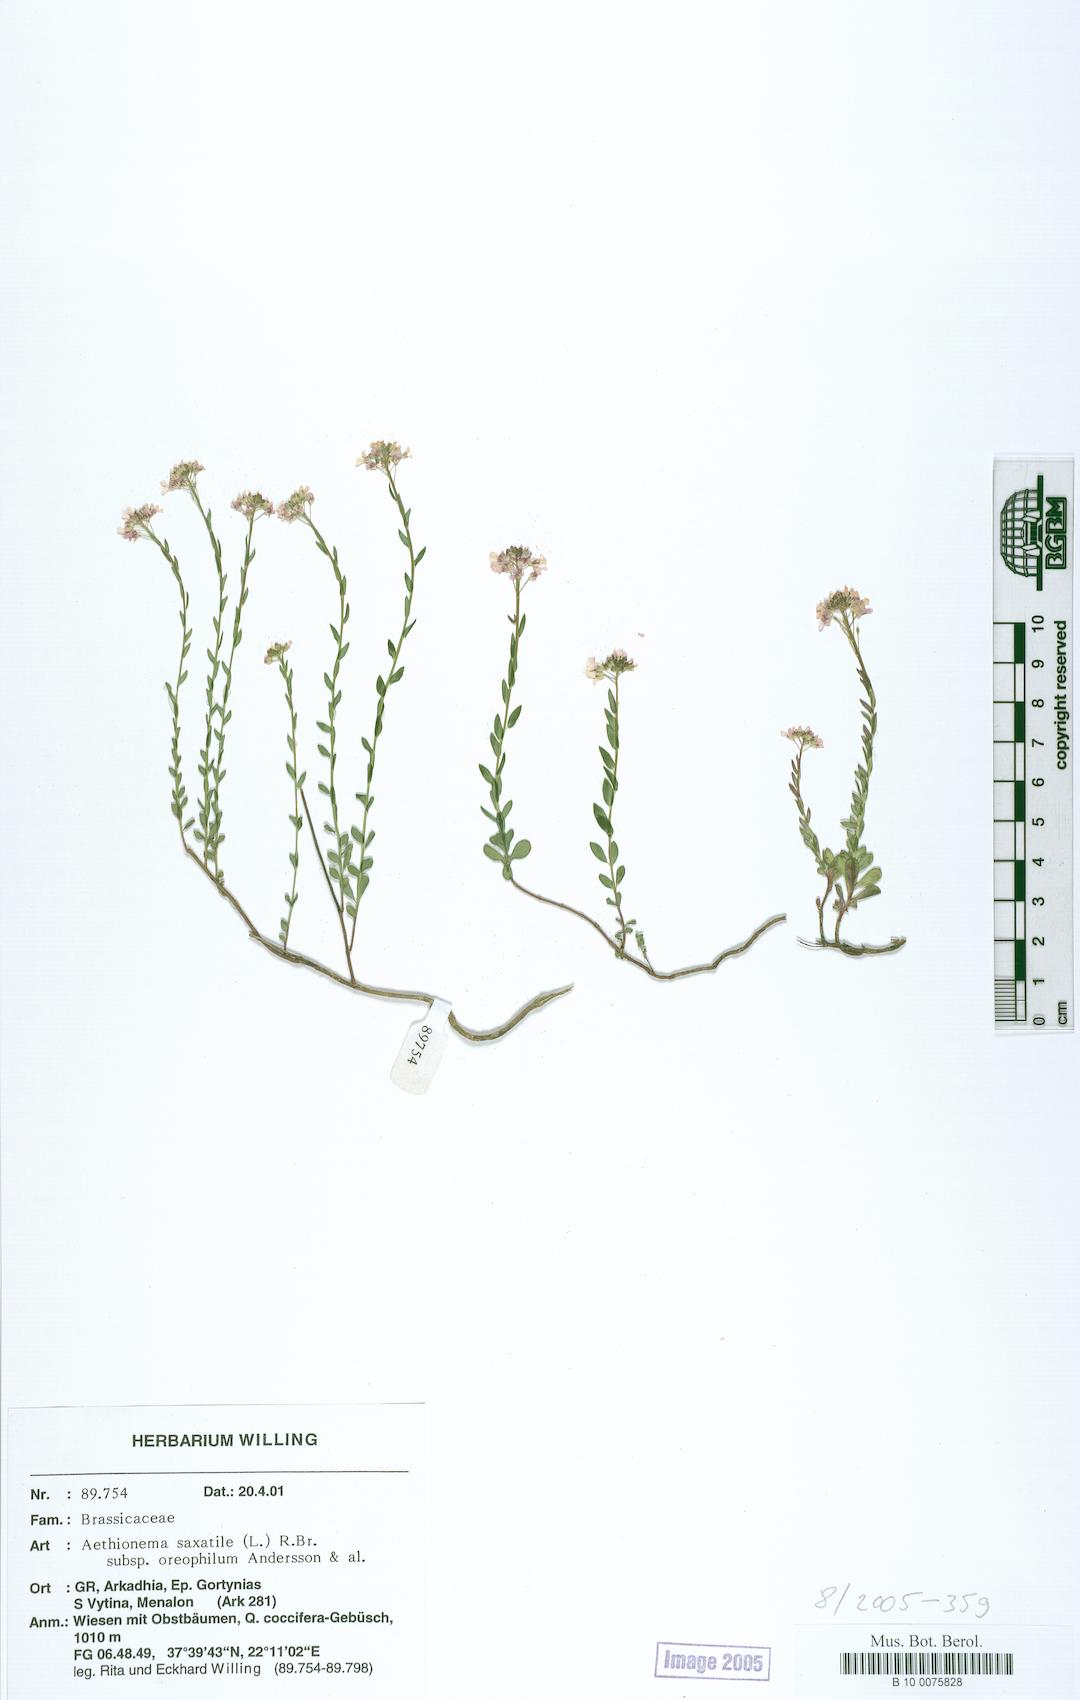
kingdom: Plantae
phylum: Tracheophyta
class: Magnoliopsida
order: Brassicales
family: Brassicaceae
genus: Aethionema
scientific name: Aethionema saxatile
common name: Burnt candytuft
